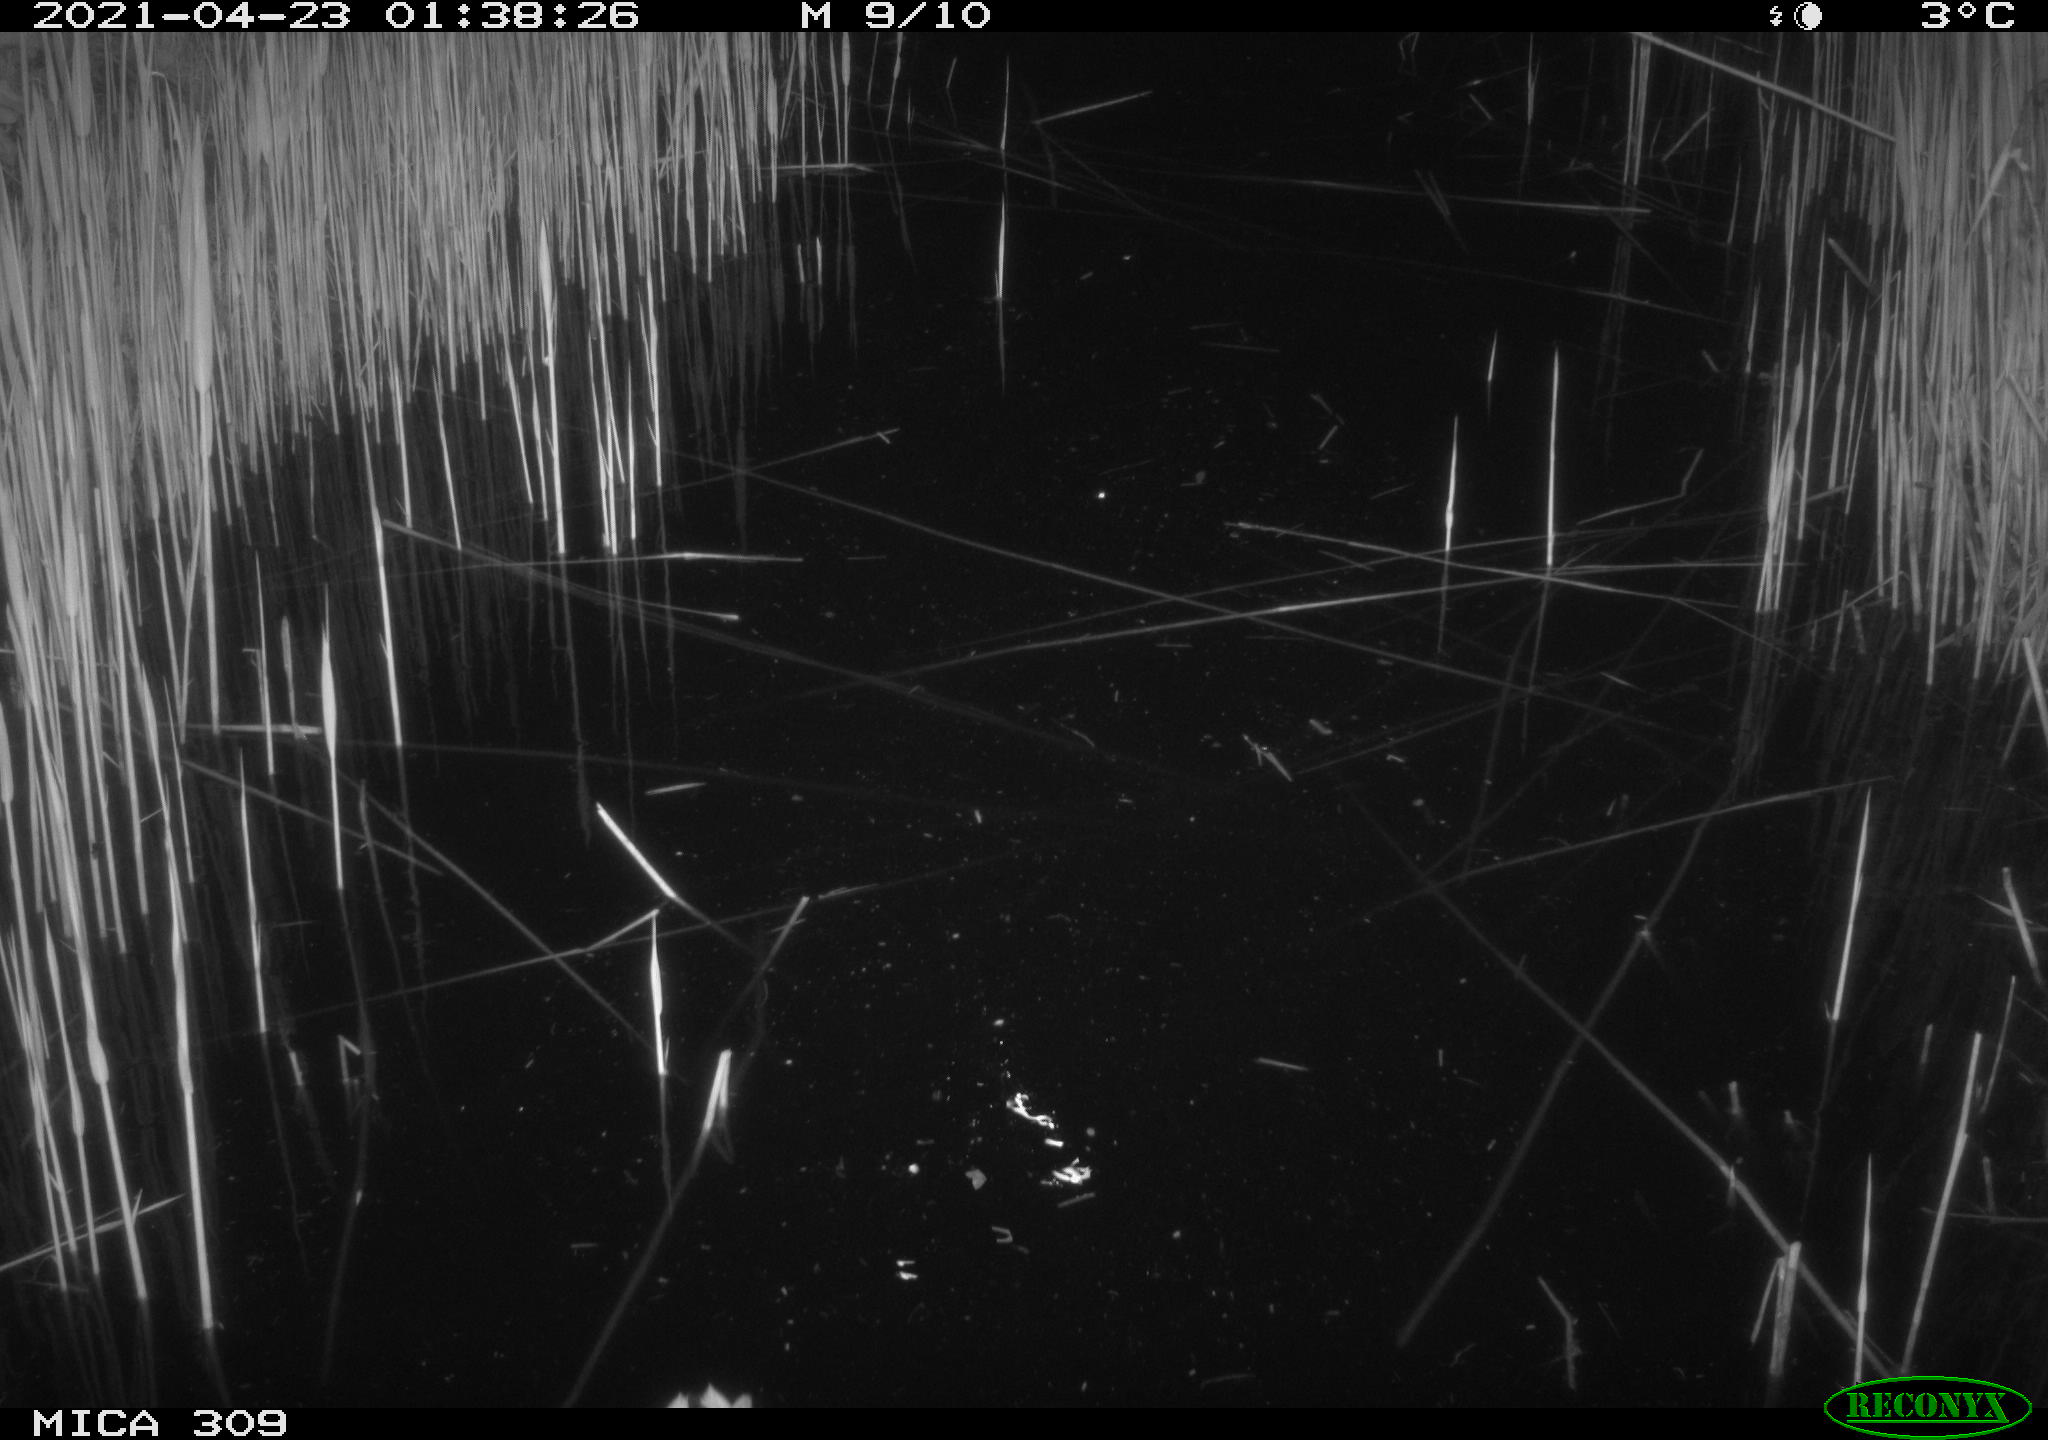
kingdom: Animalia
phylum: Chordata
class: Aves
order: Anseriformes
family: Anatidae
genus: Anas
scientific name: Anas platyrhynchos
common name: Mallard
